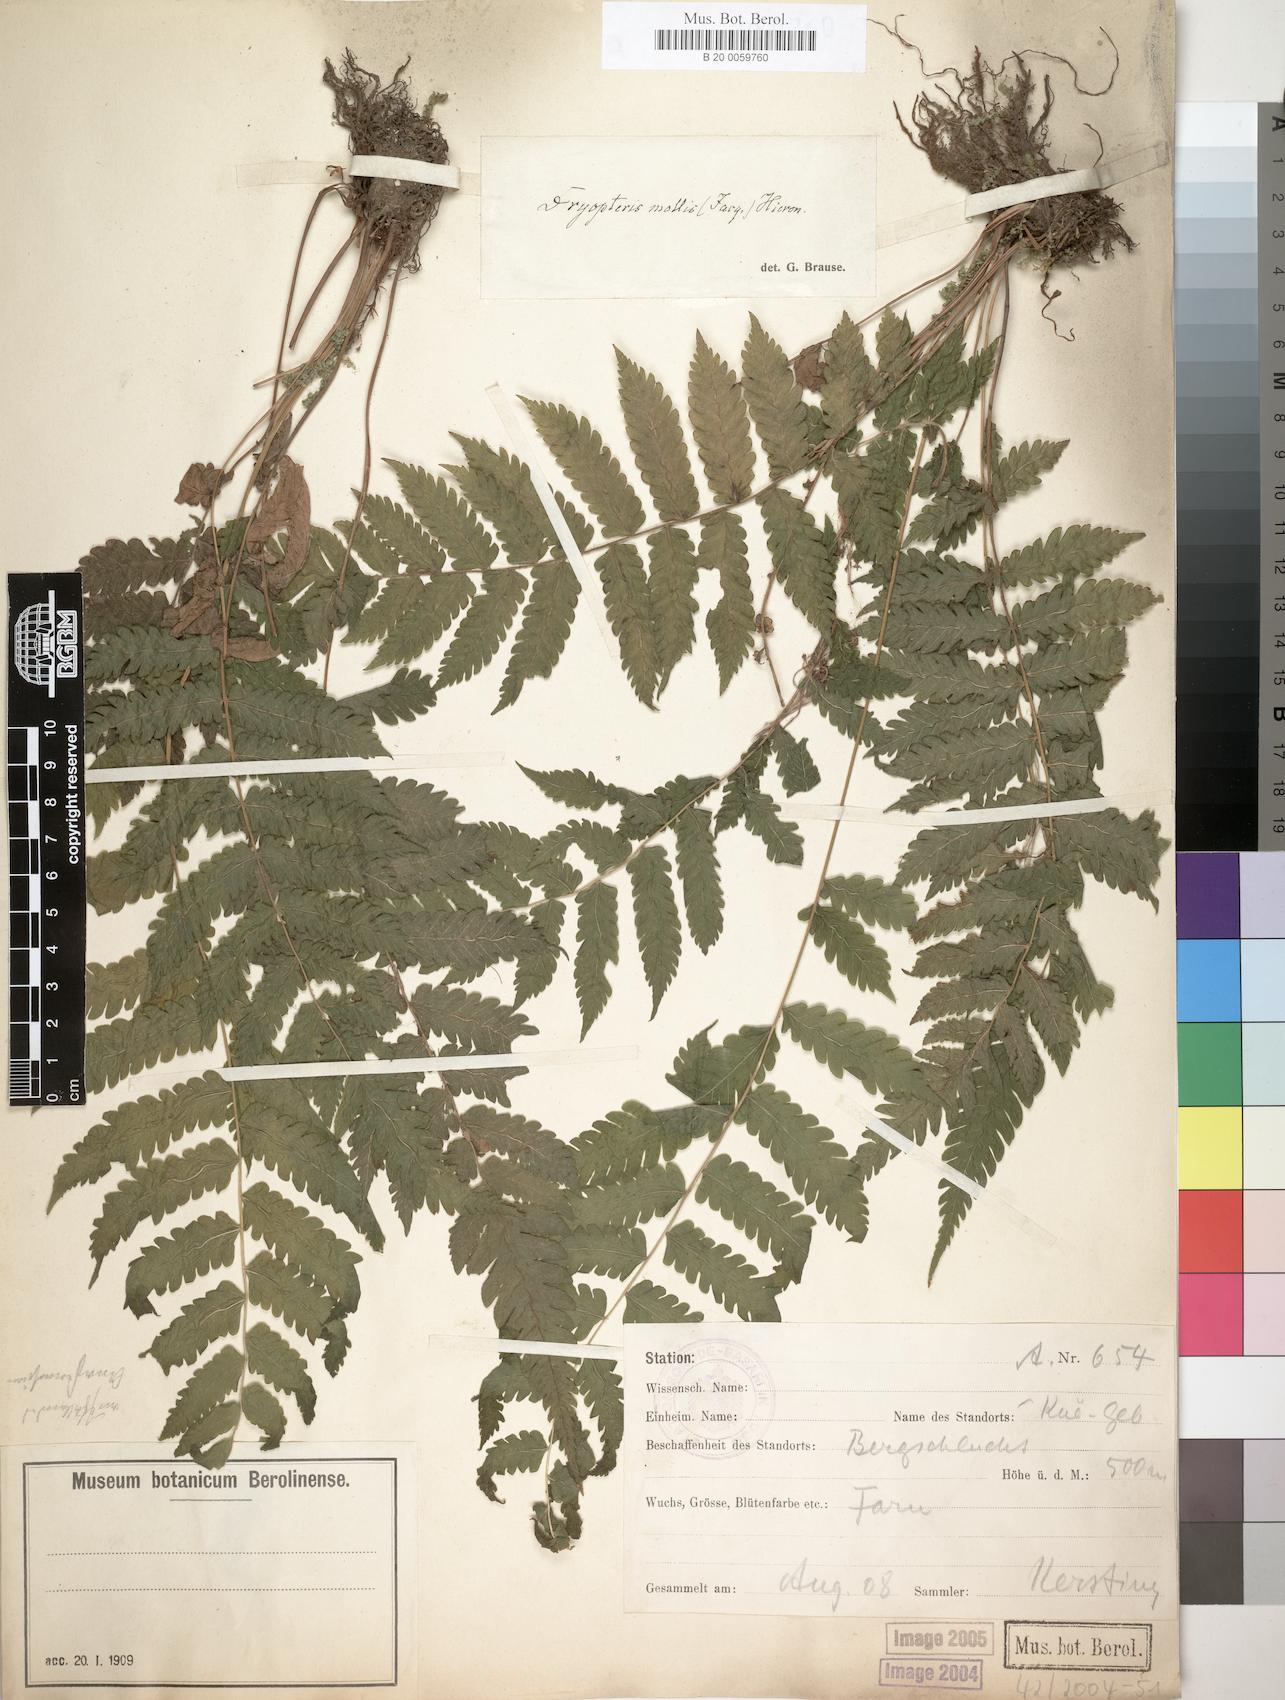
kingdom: Plantae
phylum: Tracheophyta
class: Polypodiopsida
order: Polypodiales
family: Thelypteridaceae
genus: Christella
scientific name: Christella dentata
